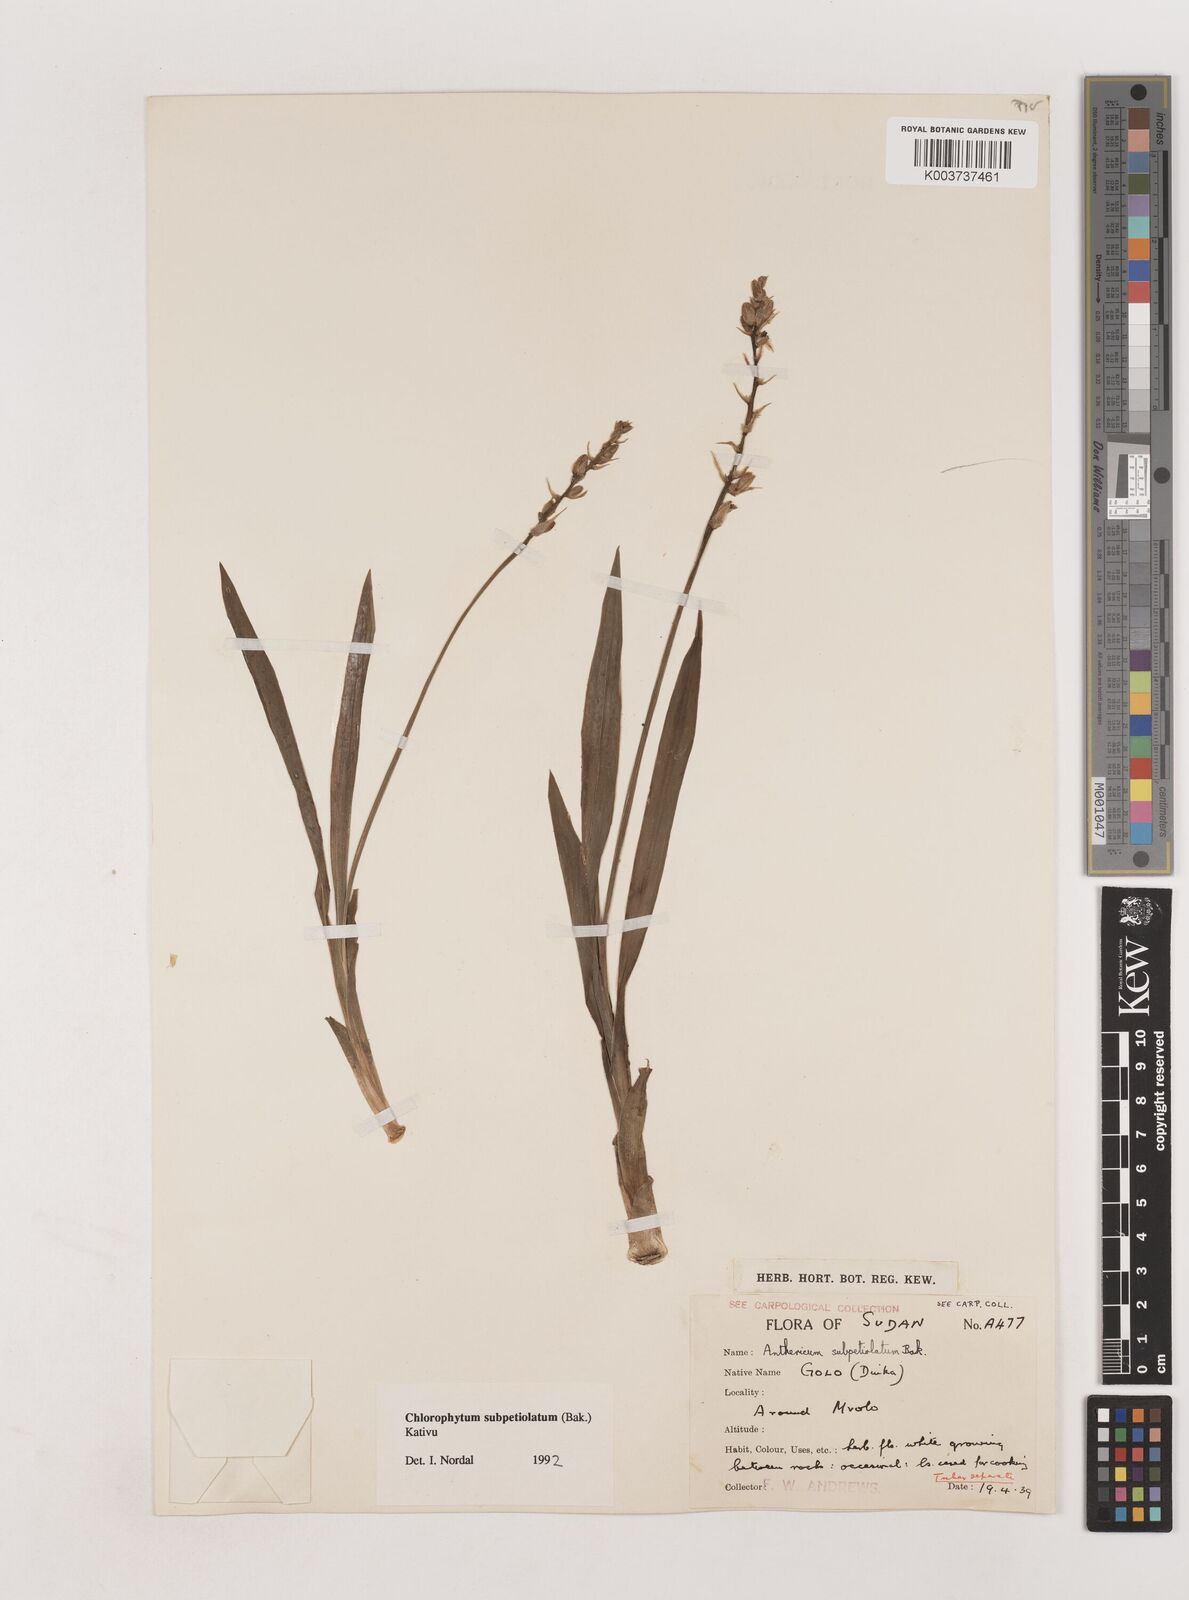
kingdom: Plantae
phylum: Tracheophyta
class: Liliopsida
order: Asparagales
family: Asparagaceae
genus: Chlorophytum
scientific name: Chlorophytum subpetiolatum
